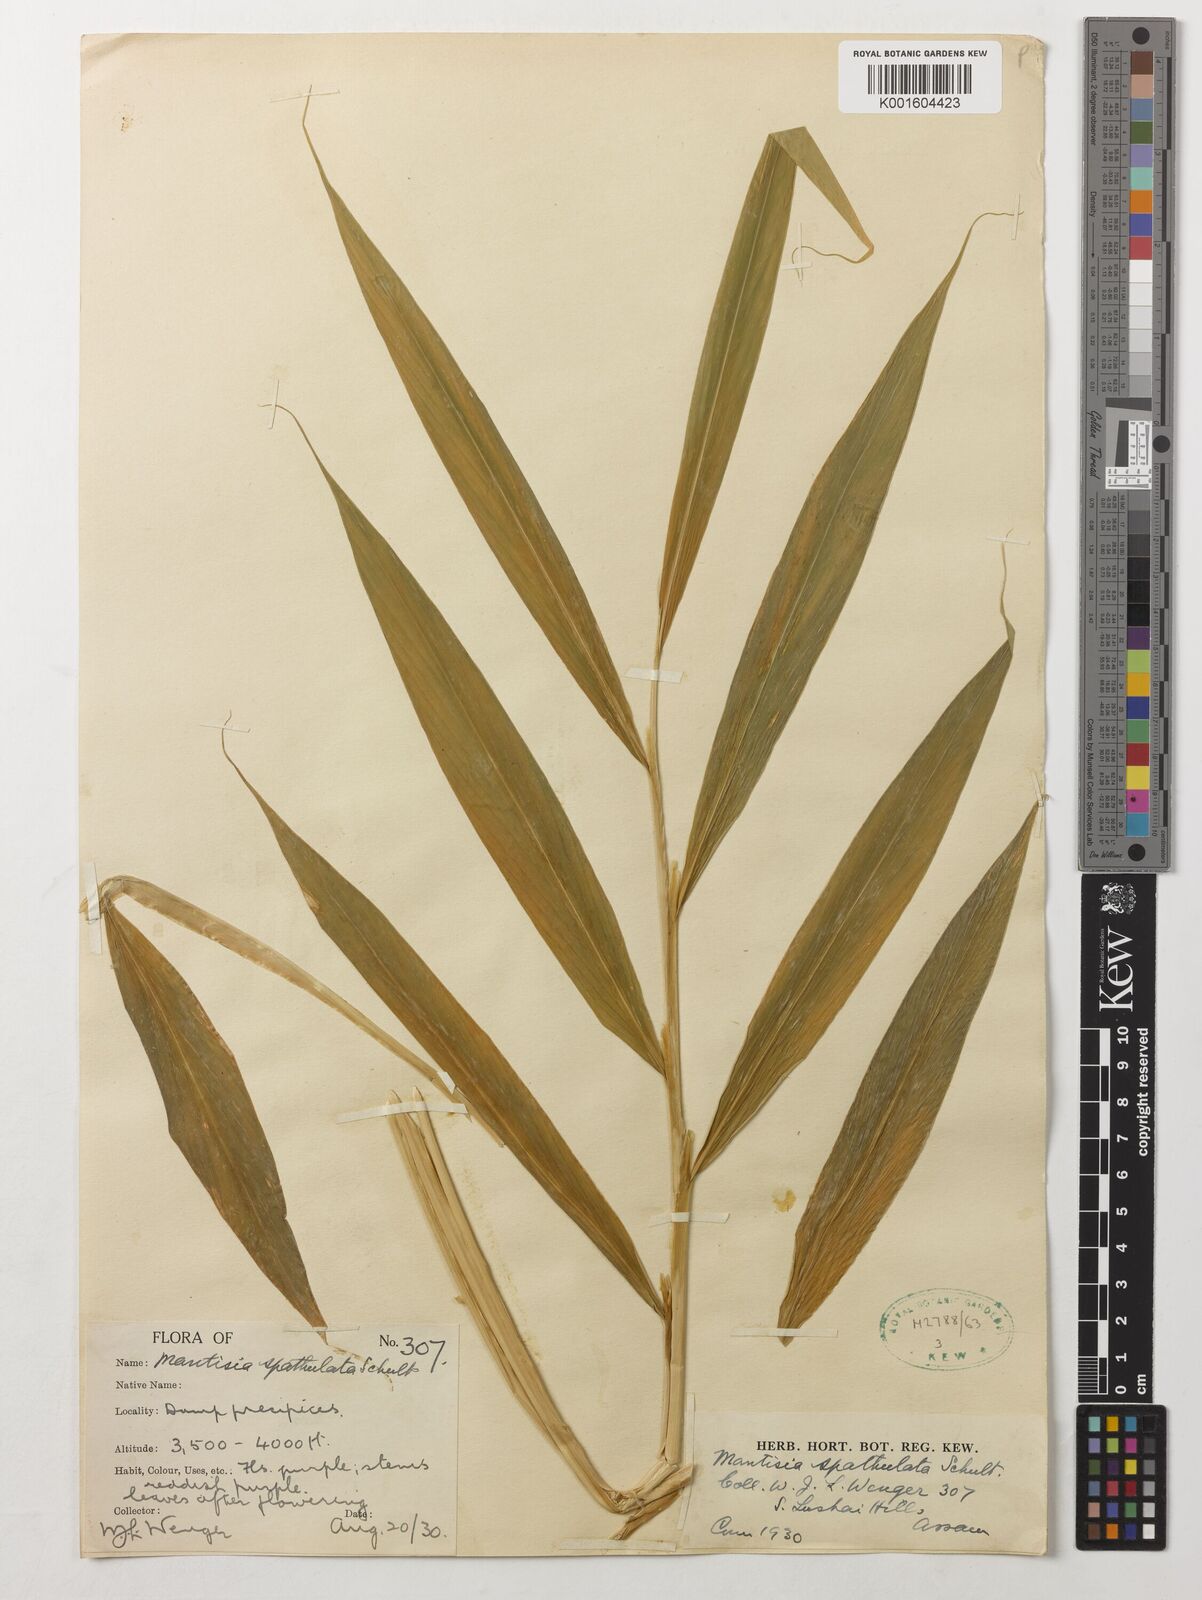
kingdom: Plantae
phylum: Tracheophyta
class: Liliopsida
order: Zingiberales
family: Zingiberaceae
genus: Globba
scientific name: Globba spathulata
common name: Dancing girl flower
